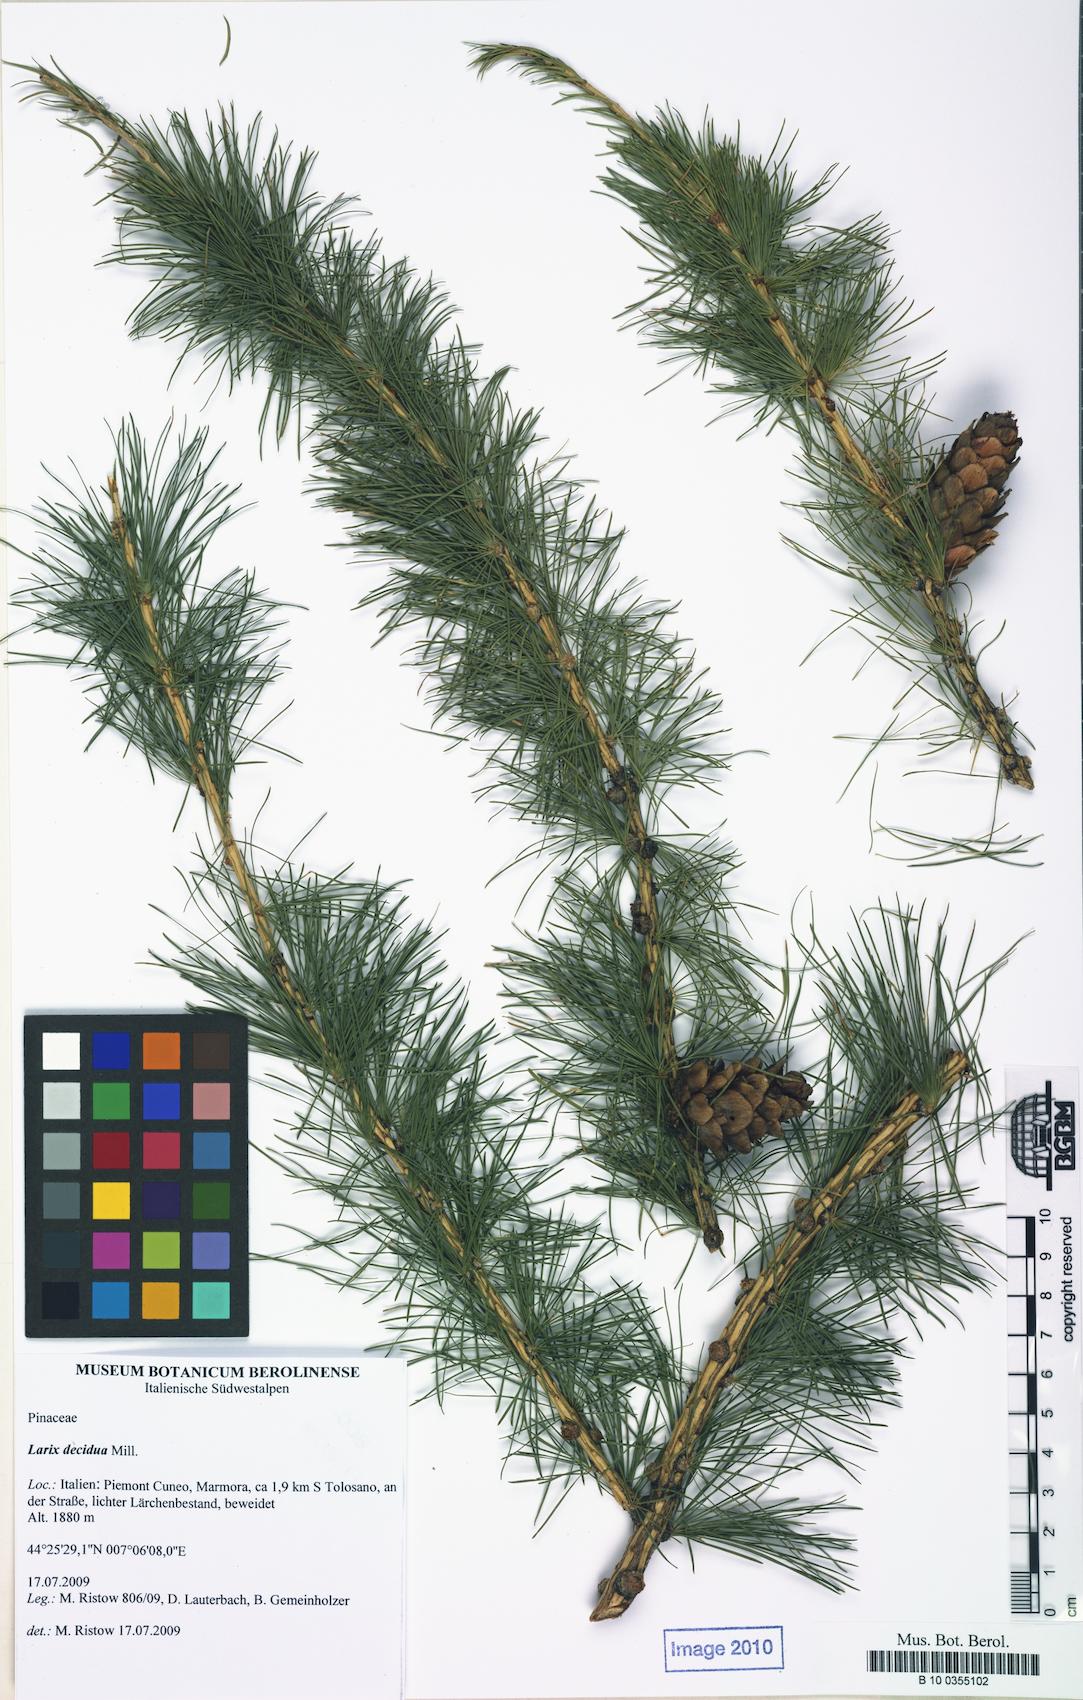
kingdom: Plantae
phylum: Tracheophyta
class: Pinopsida
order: Pinales
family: Pinaceae
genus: Larix
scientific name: Larix decidua
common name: European larch
